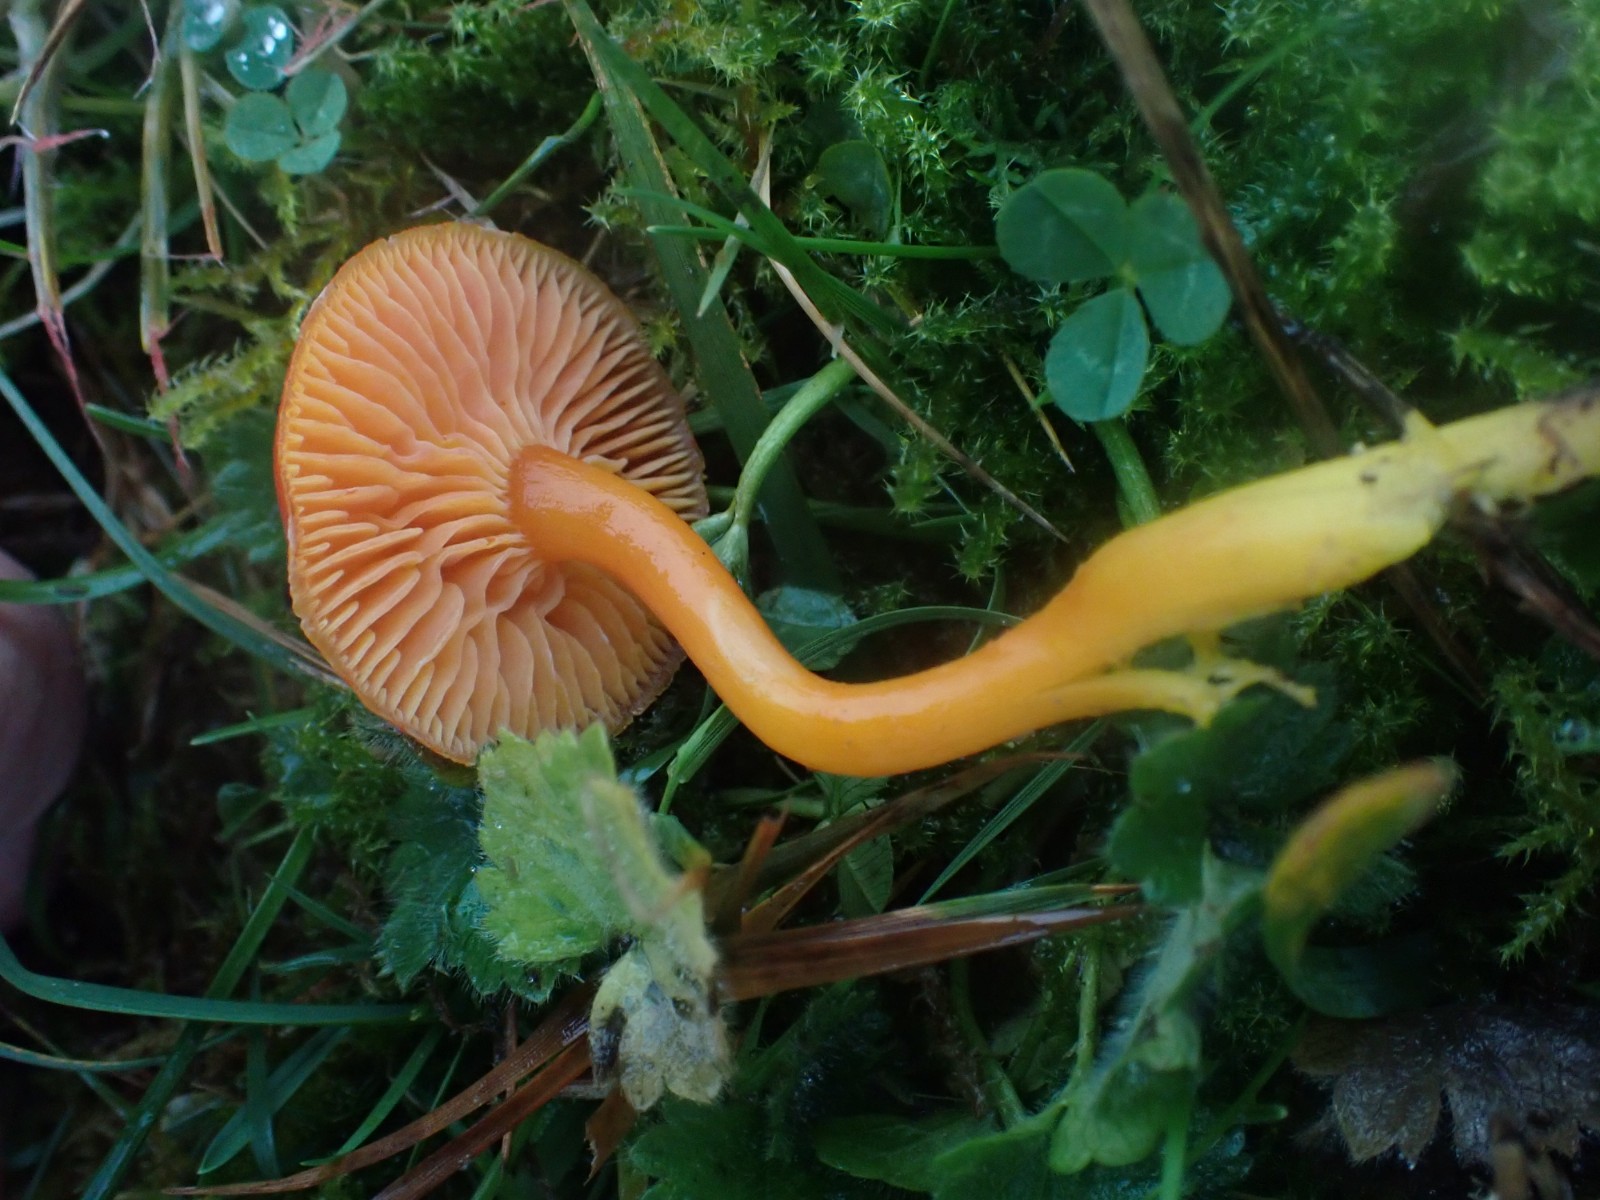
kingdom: Fungi
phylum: Basidiomycota
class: Agaricomycetes
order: Agaricales
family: Hygrophoraceae
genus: Hygrocybe
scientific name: Hygrocybe miniata
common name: mønje-vokshat
